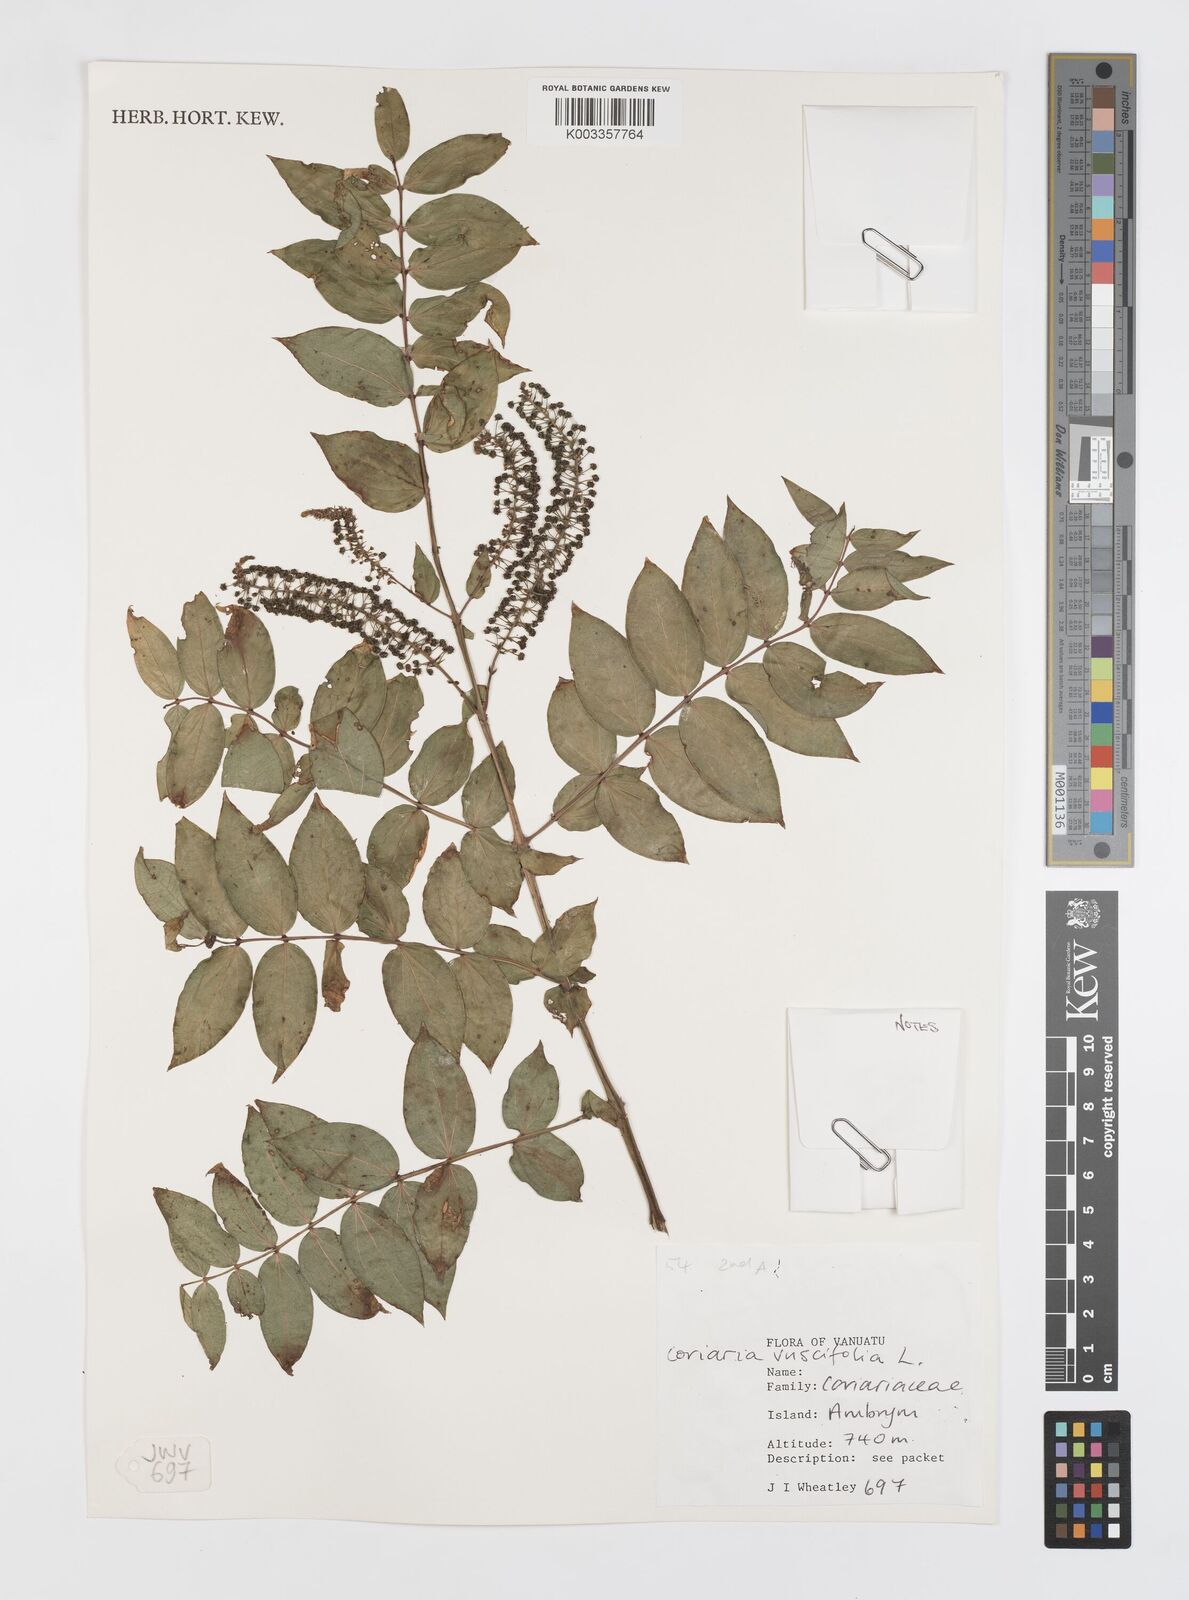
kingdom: Plantae
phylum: Tracheophyta
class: Magnoliopsida
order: Cucurbitales
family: Coriariaceae
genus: Coriaria
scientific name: Coriaria ruscifolia
